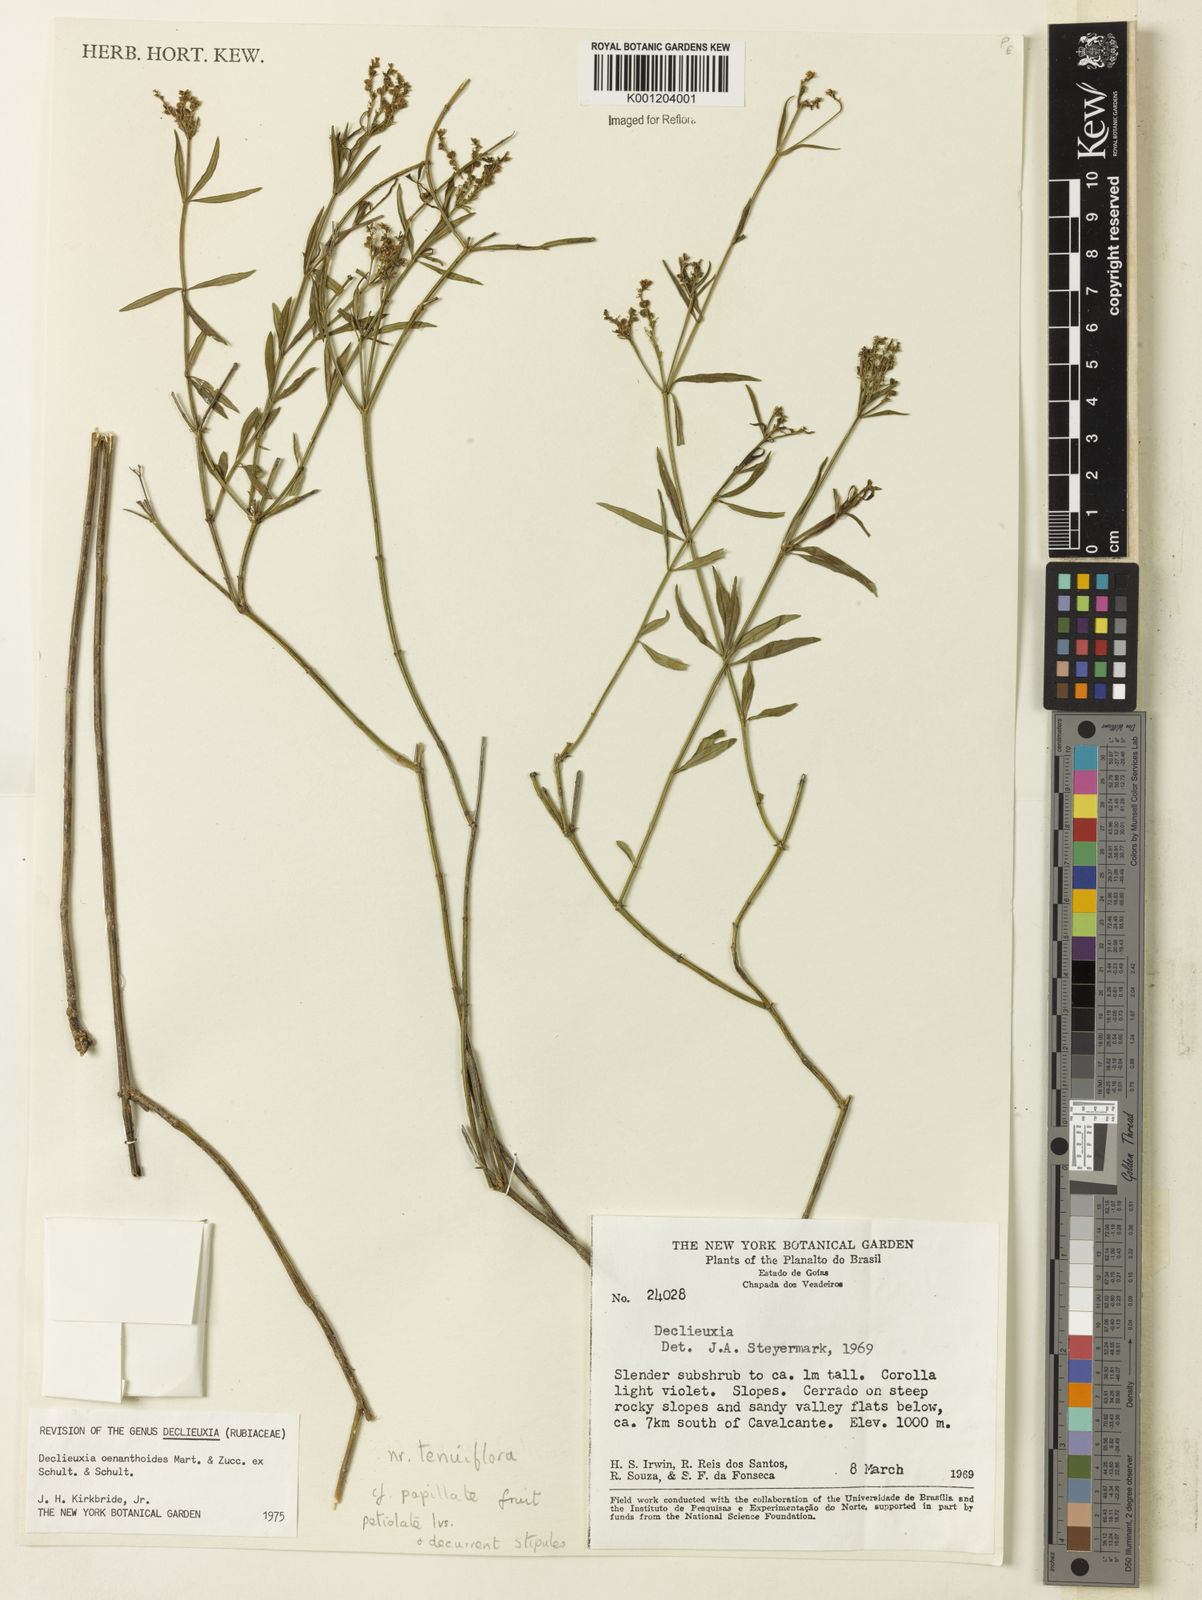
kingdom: Plantae
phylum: Tracheophyta
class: Magnoliopsida
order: Gentianales
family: Rubiaceae
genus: Declieuxia
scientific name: Declieuxia
